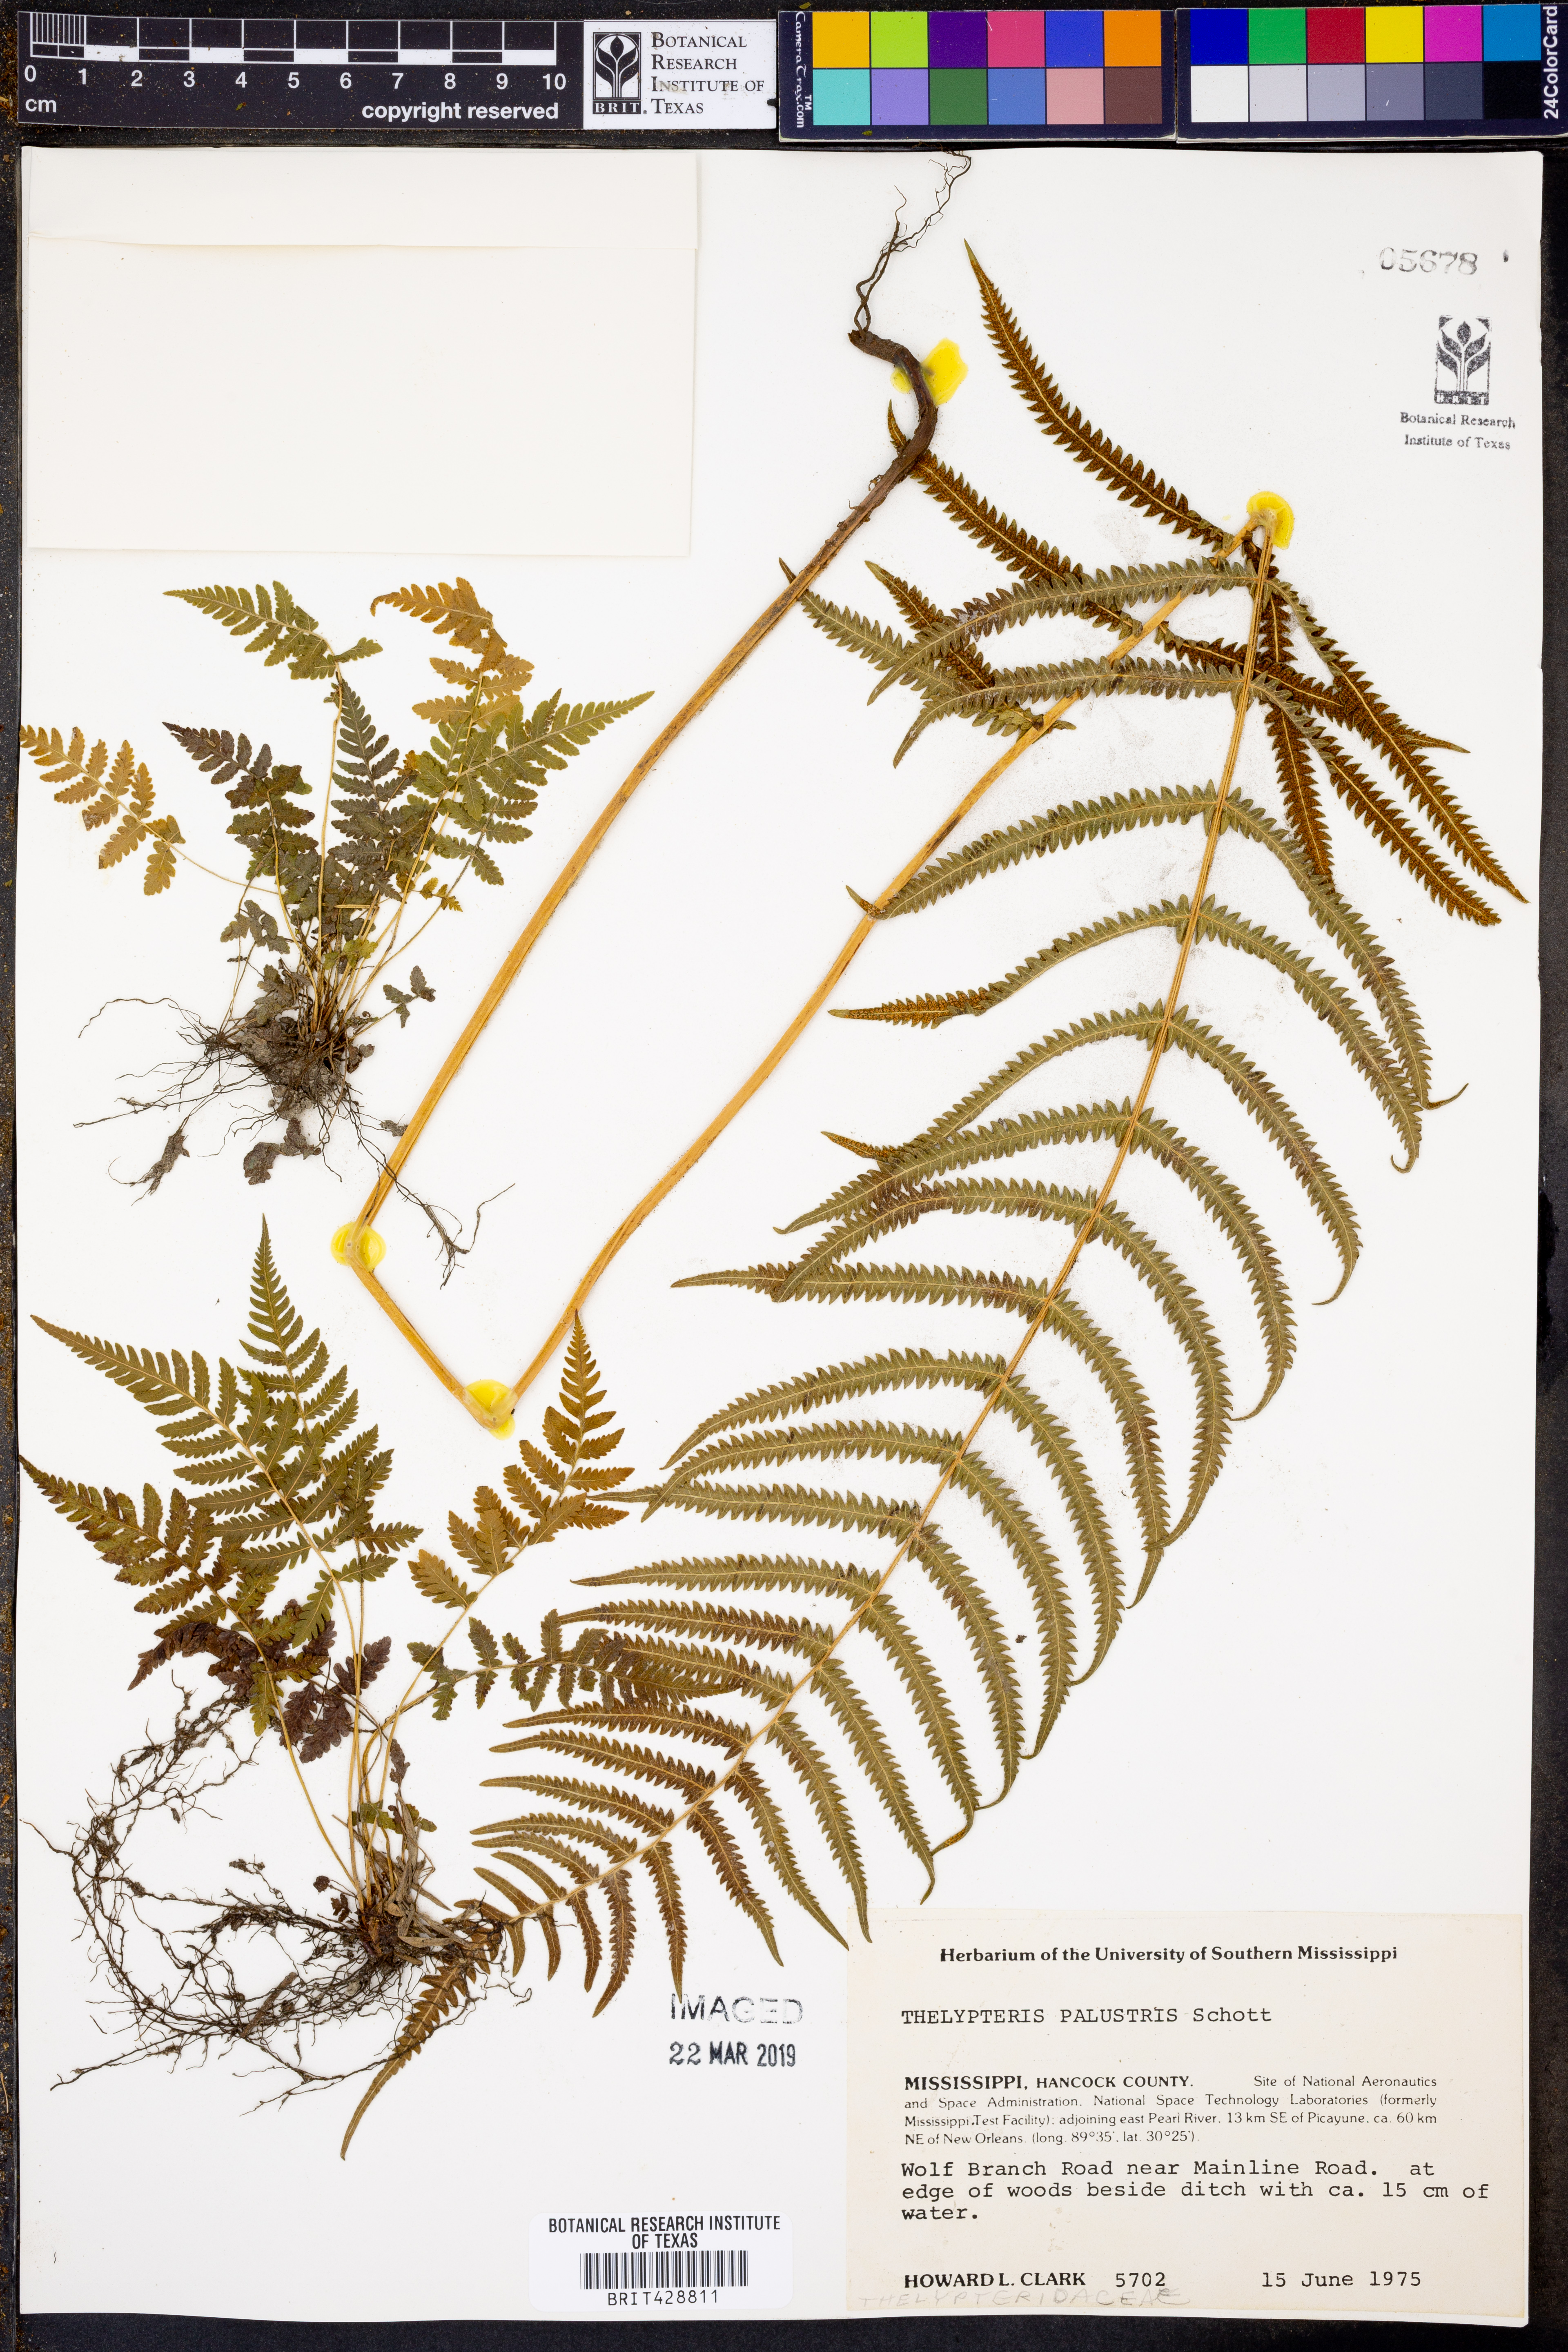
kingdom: Plantae
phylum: Tracheophyta
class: Polypodiopsida
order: Polypodiales
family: Thelypteridaceae
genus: Thelypteris
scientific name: Thelypteris palustris
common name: Marsh fern
